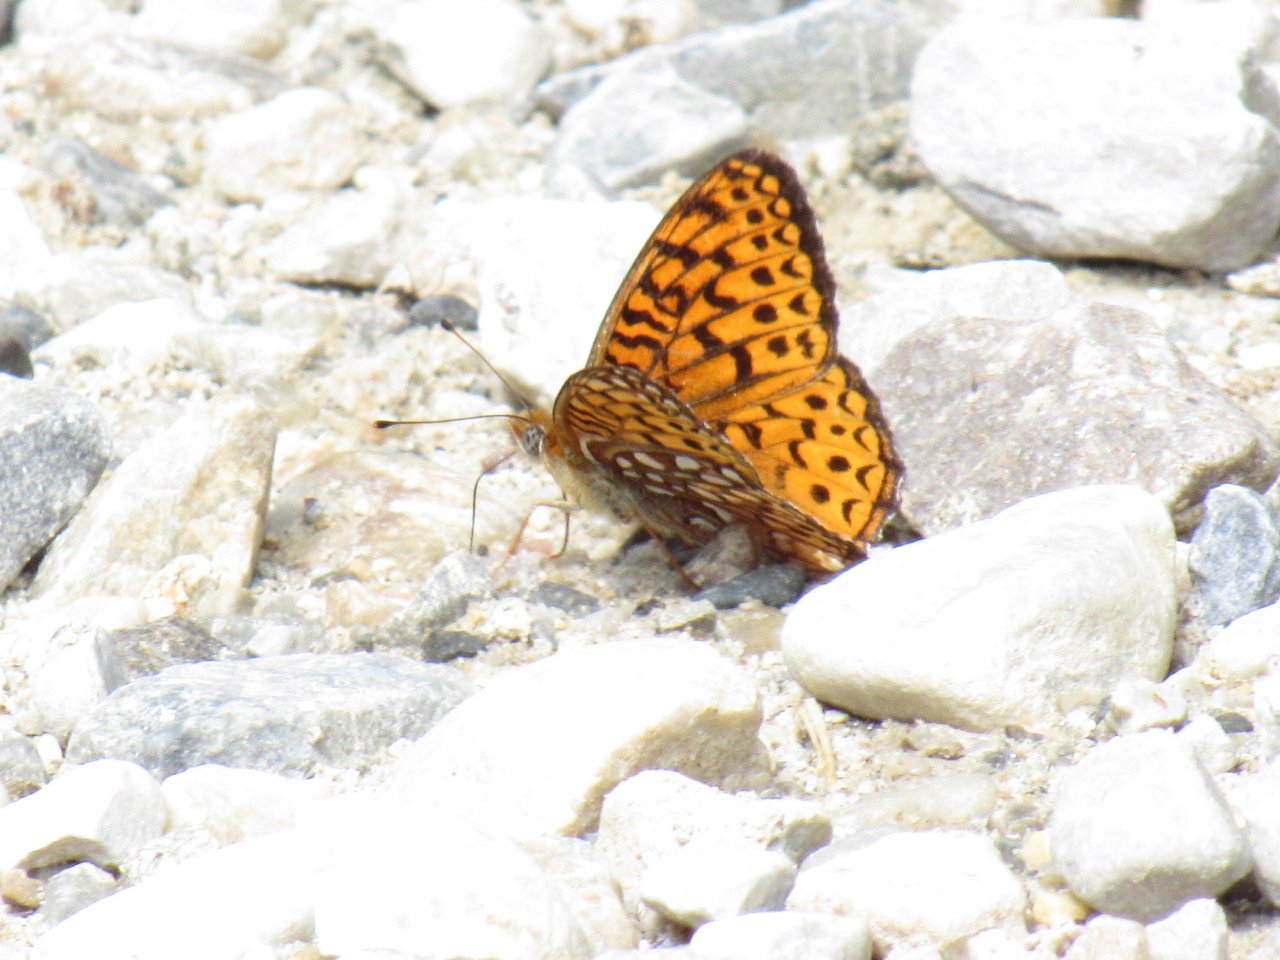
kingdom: Animalia
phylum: Arthropoda
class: Insecta
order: Lepidoptera
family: Nymphalidae
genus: Speyeria
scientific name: Speyeria atlantis
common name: Atlantis Fritillary
